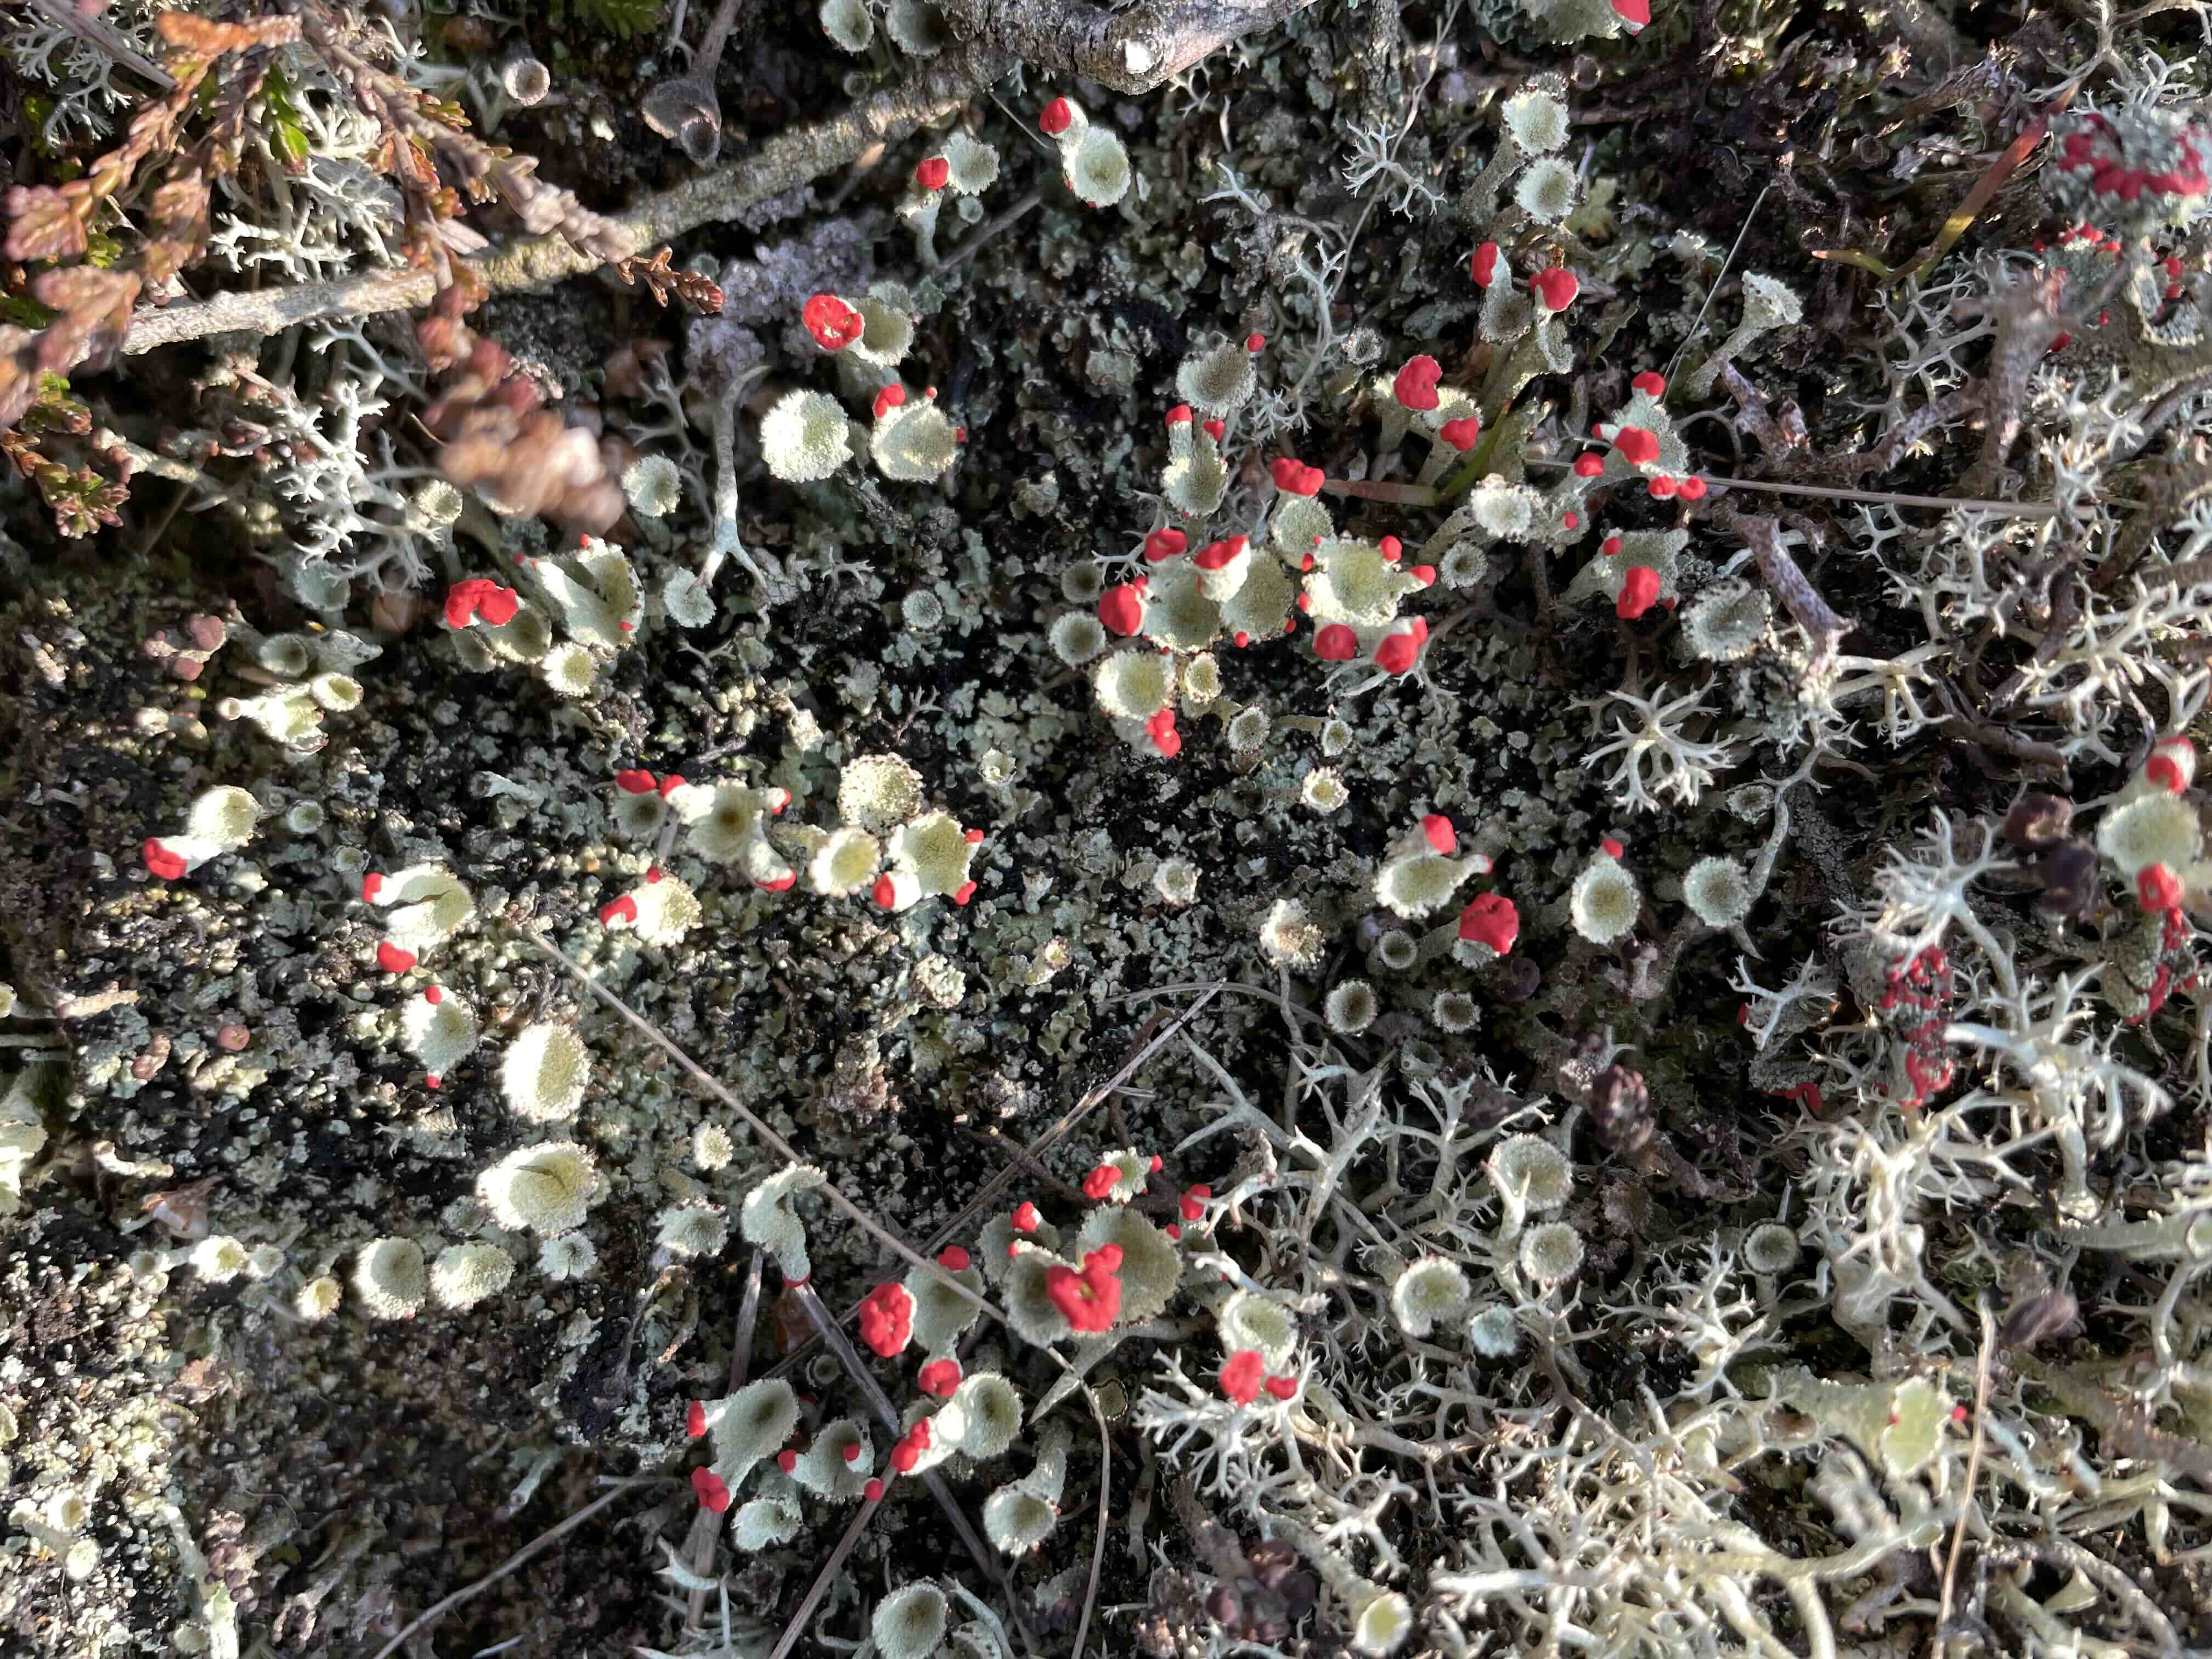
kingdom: Fungi
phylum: Ascomycota
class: Lecanoromycetes
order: Lecanorales
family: Cladoniaceae
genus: Cladonia
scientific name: Cladonia diversa
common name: rød bægerlav
